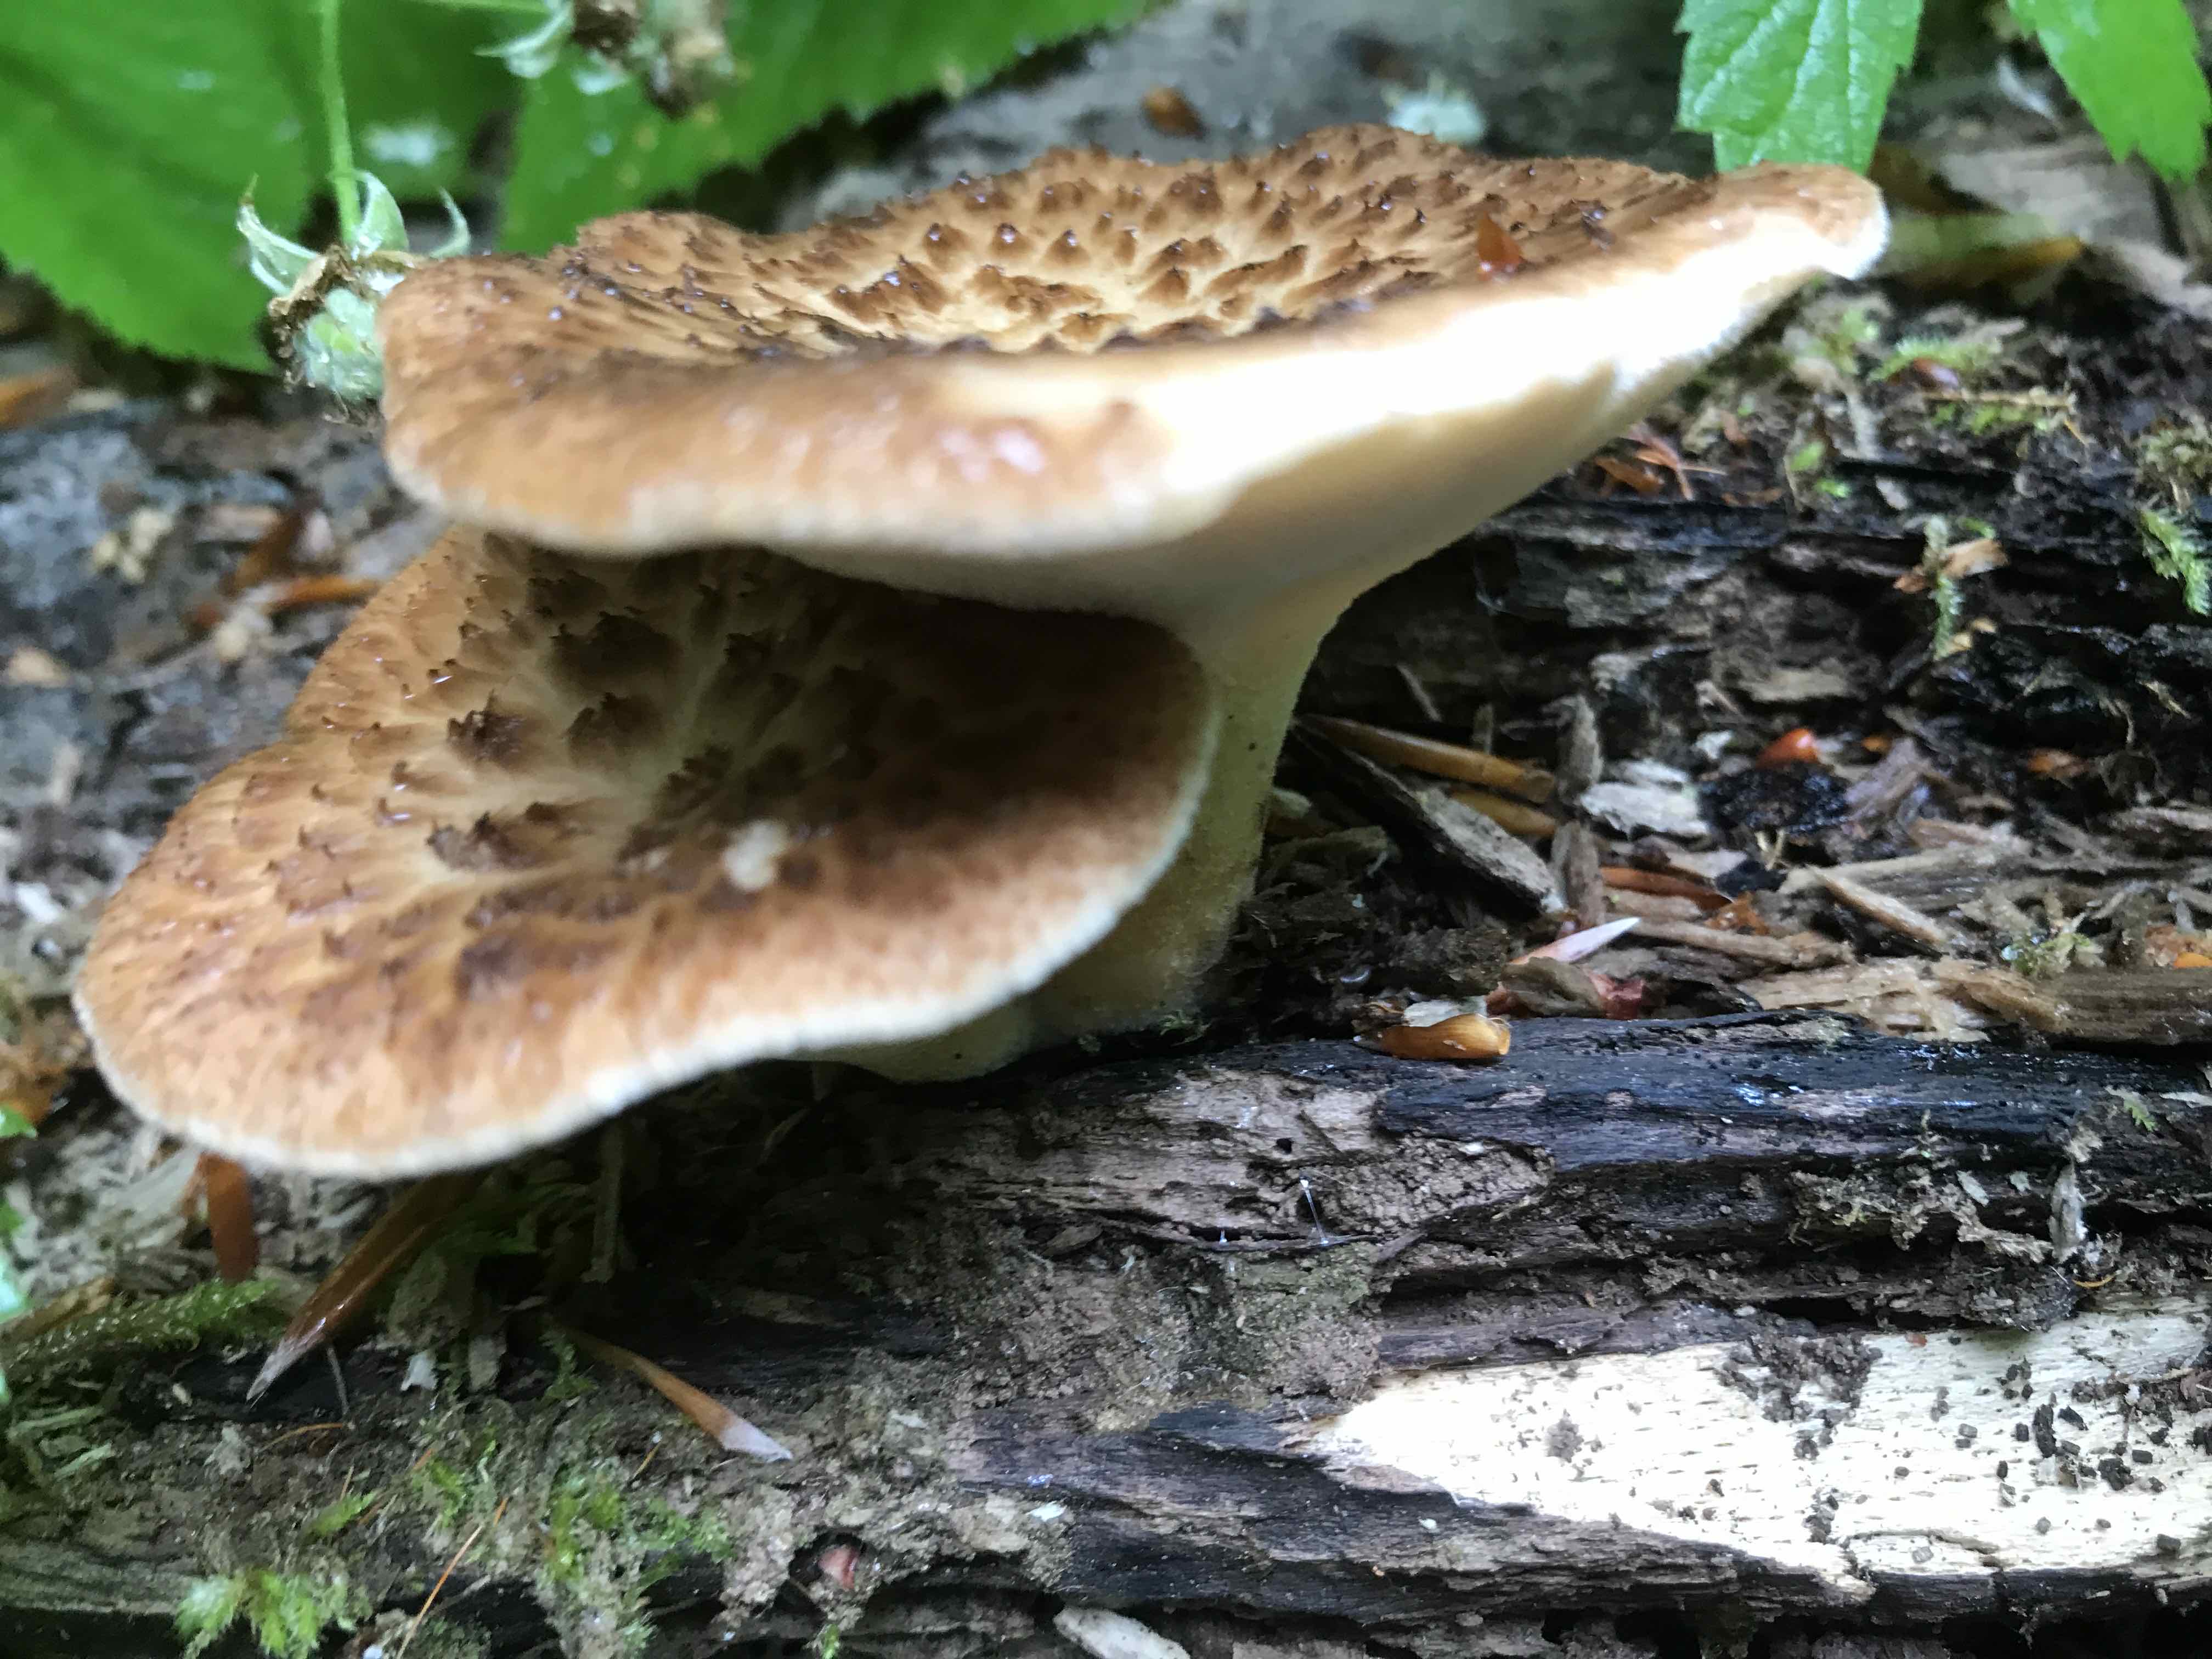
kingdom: Fungi
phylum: Basidiomycota
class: Agaricomycetes
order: Polyporales
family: Polyporaceae
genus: Polyporus
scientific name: Polyporus tuberaster
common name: knoldet stilkporesvamp
